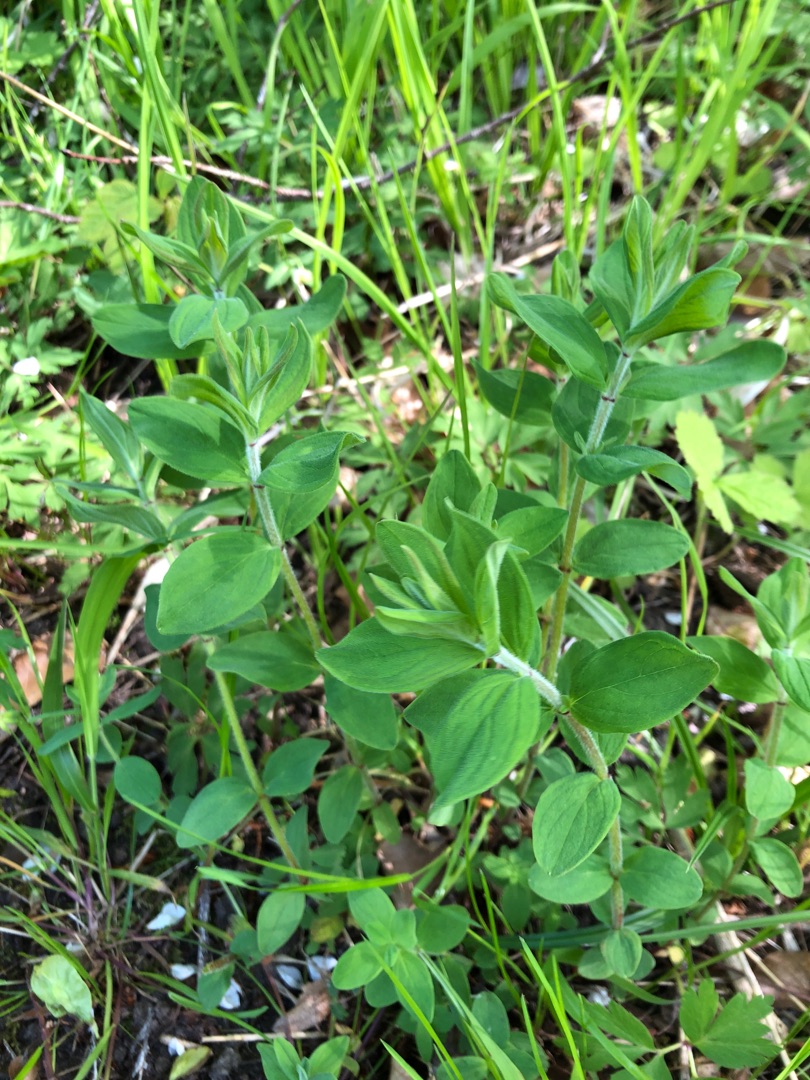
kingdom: Plantae
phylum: Tracheophyta
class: Magnoliopsida
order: Malpighiales
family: Hypericaceae
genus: Hypericum
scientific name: Hypericum hirsutum
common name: Lådden perikon
